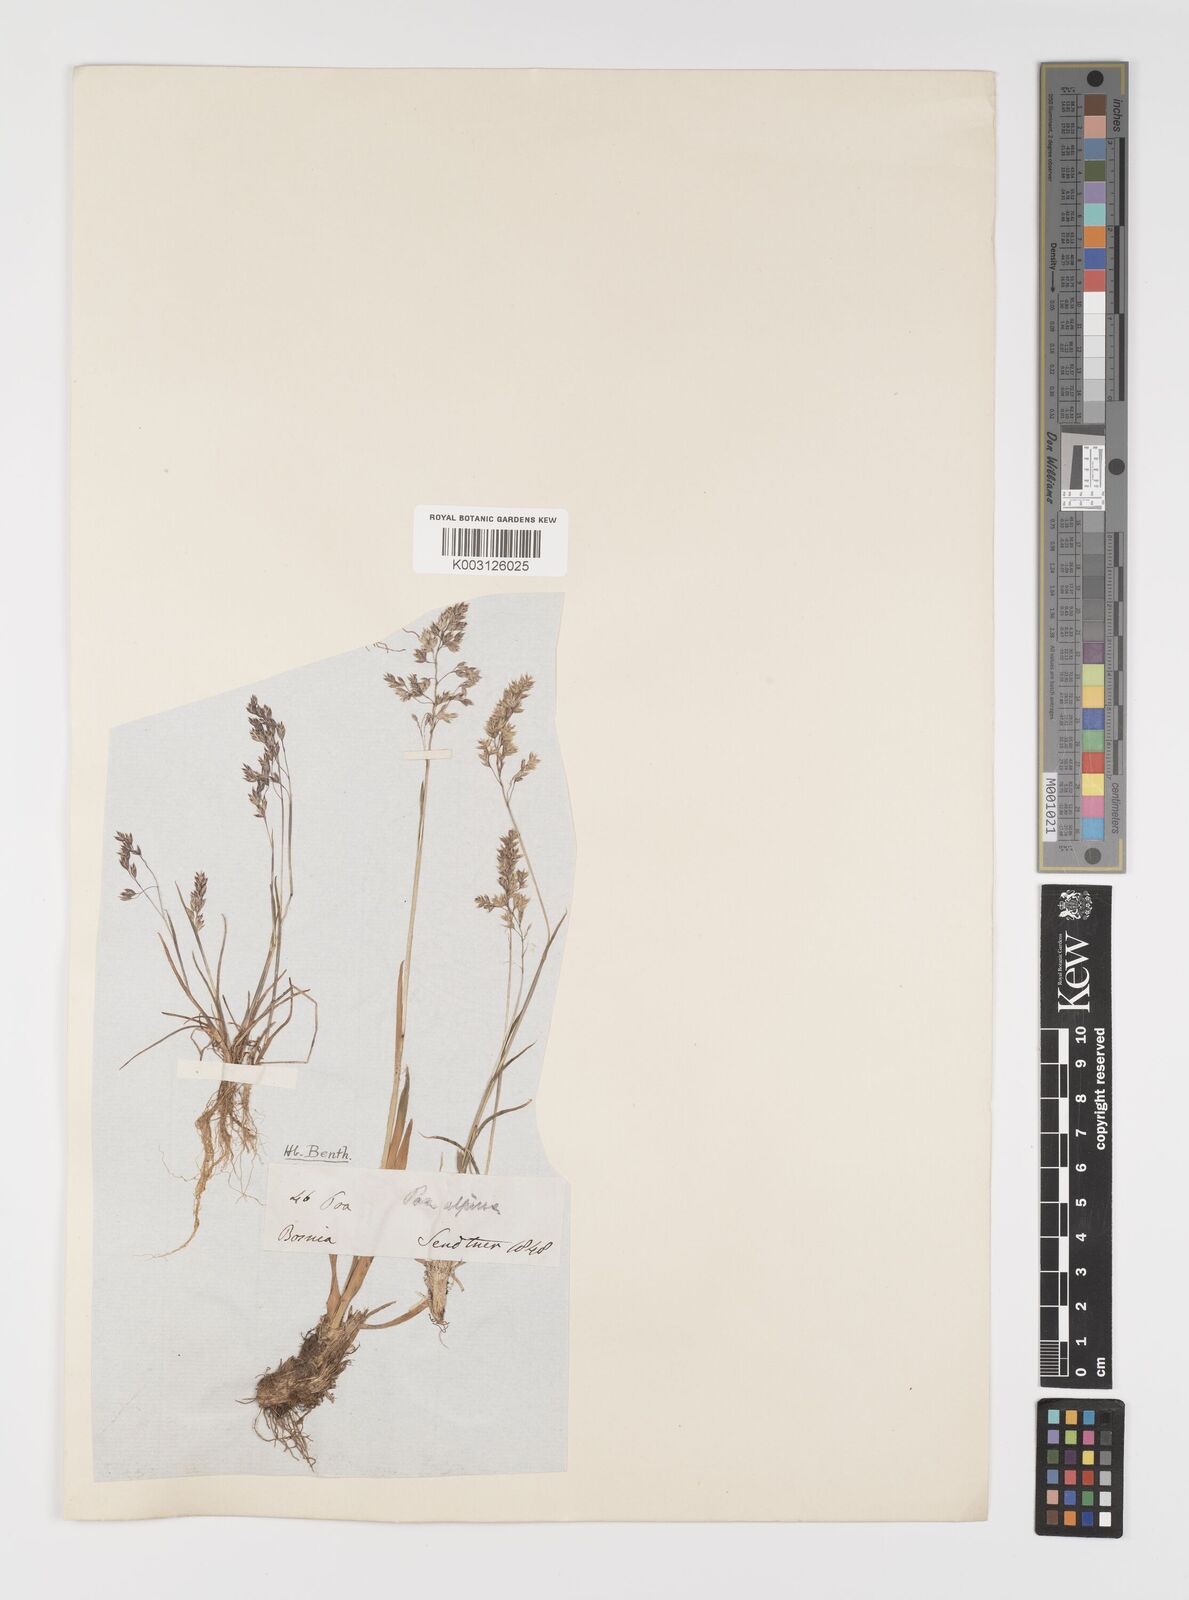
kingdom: Plantae
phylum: Tracheophyta
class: Liliopsida
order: Poales
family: Poaceae
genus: Poa
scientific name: Poa minor
